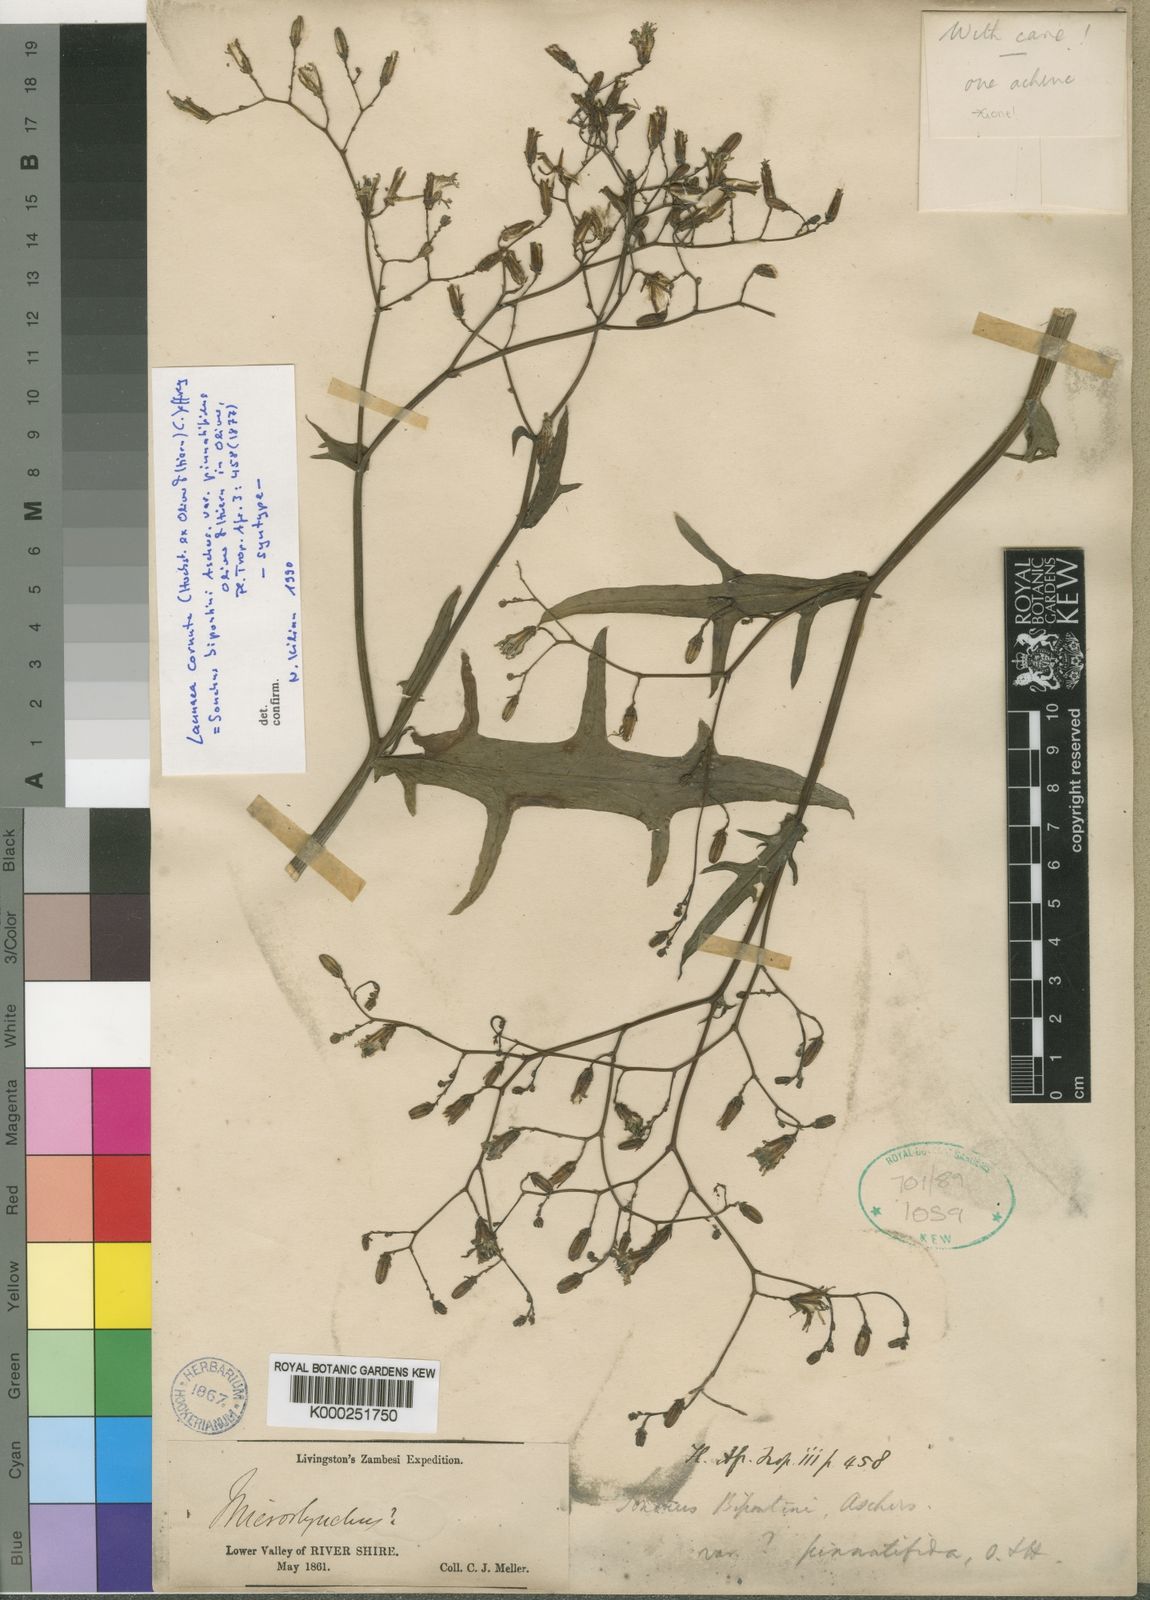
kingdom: Plantae
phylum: Tracheophyta
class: Magnoliopsida
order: Asterales
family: Asteraceae
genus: Launaea
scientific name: Launaea cornuta
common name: Bitter-lettuce
